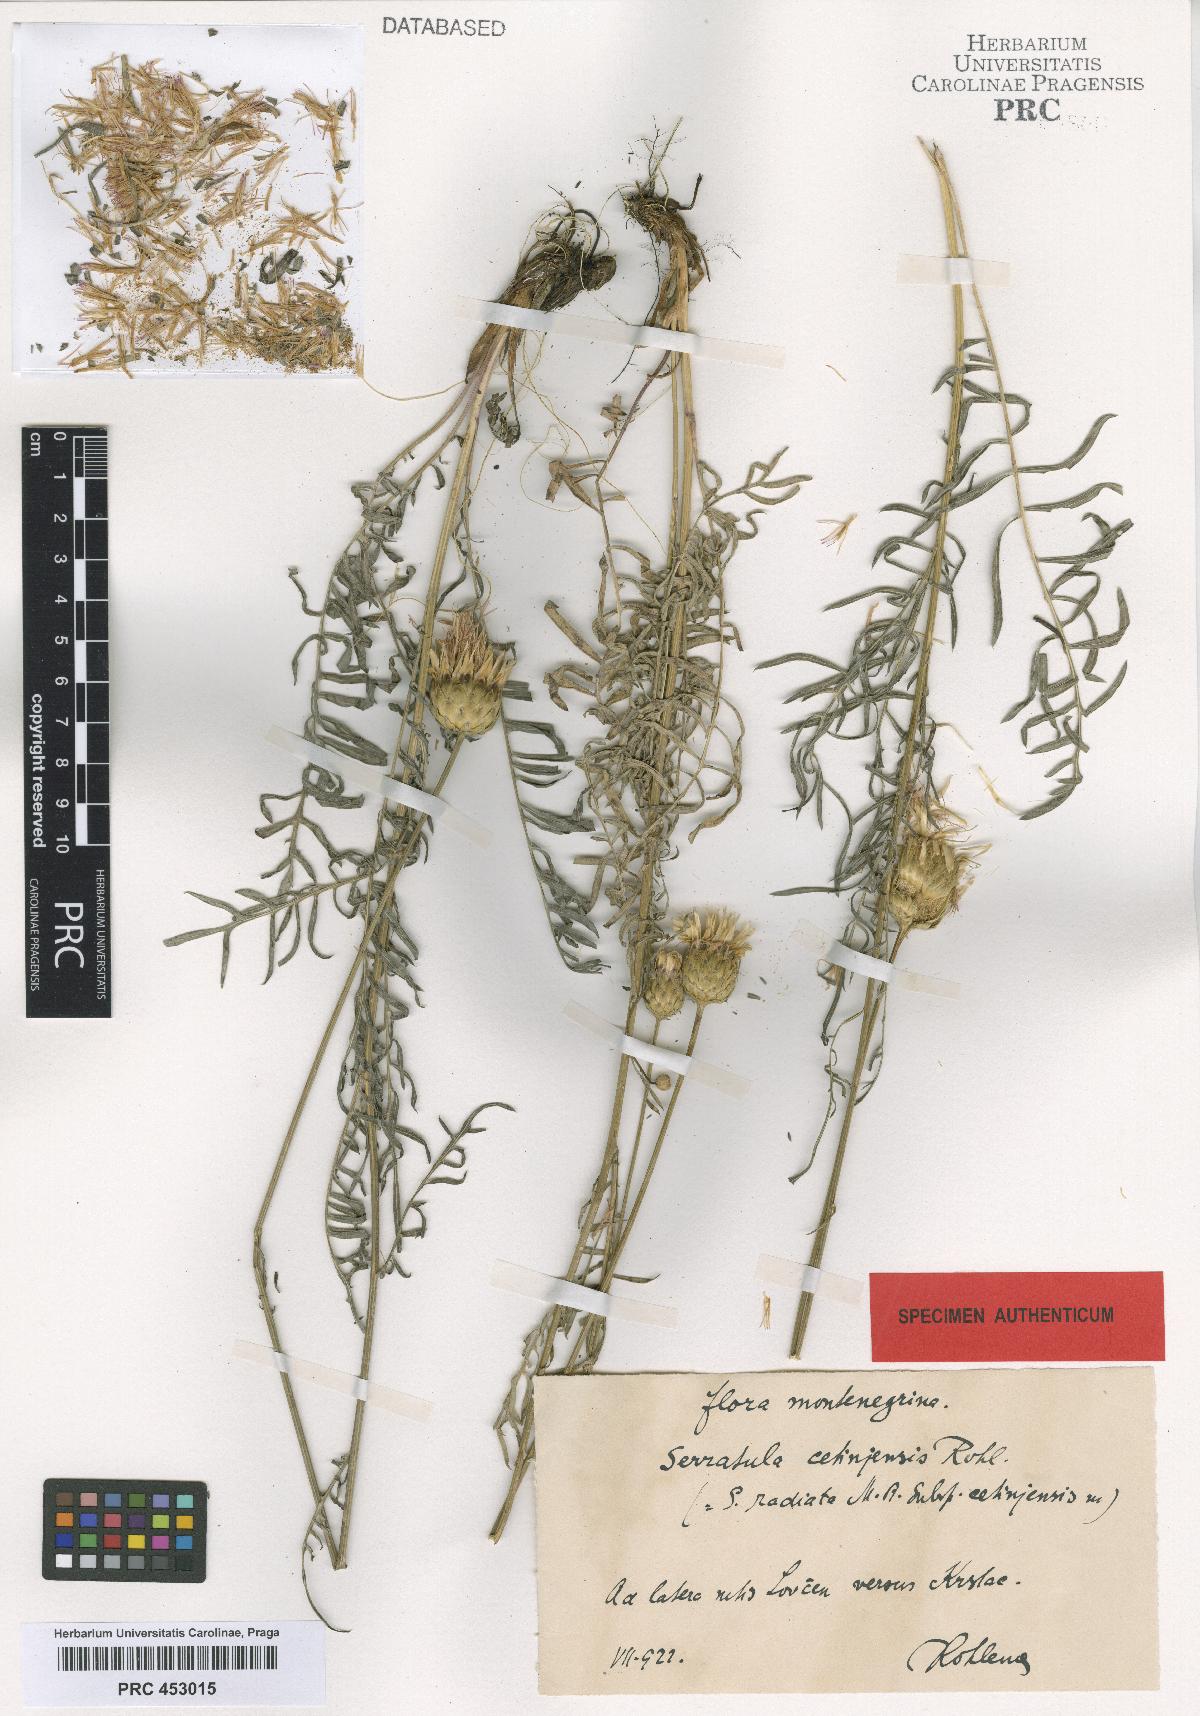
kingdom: Plantae
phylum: Tracheophyta
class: Magnoliopsida
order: Asterales
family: Asteraceae
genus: Klasea
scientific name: Klasea radiata
